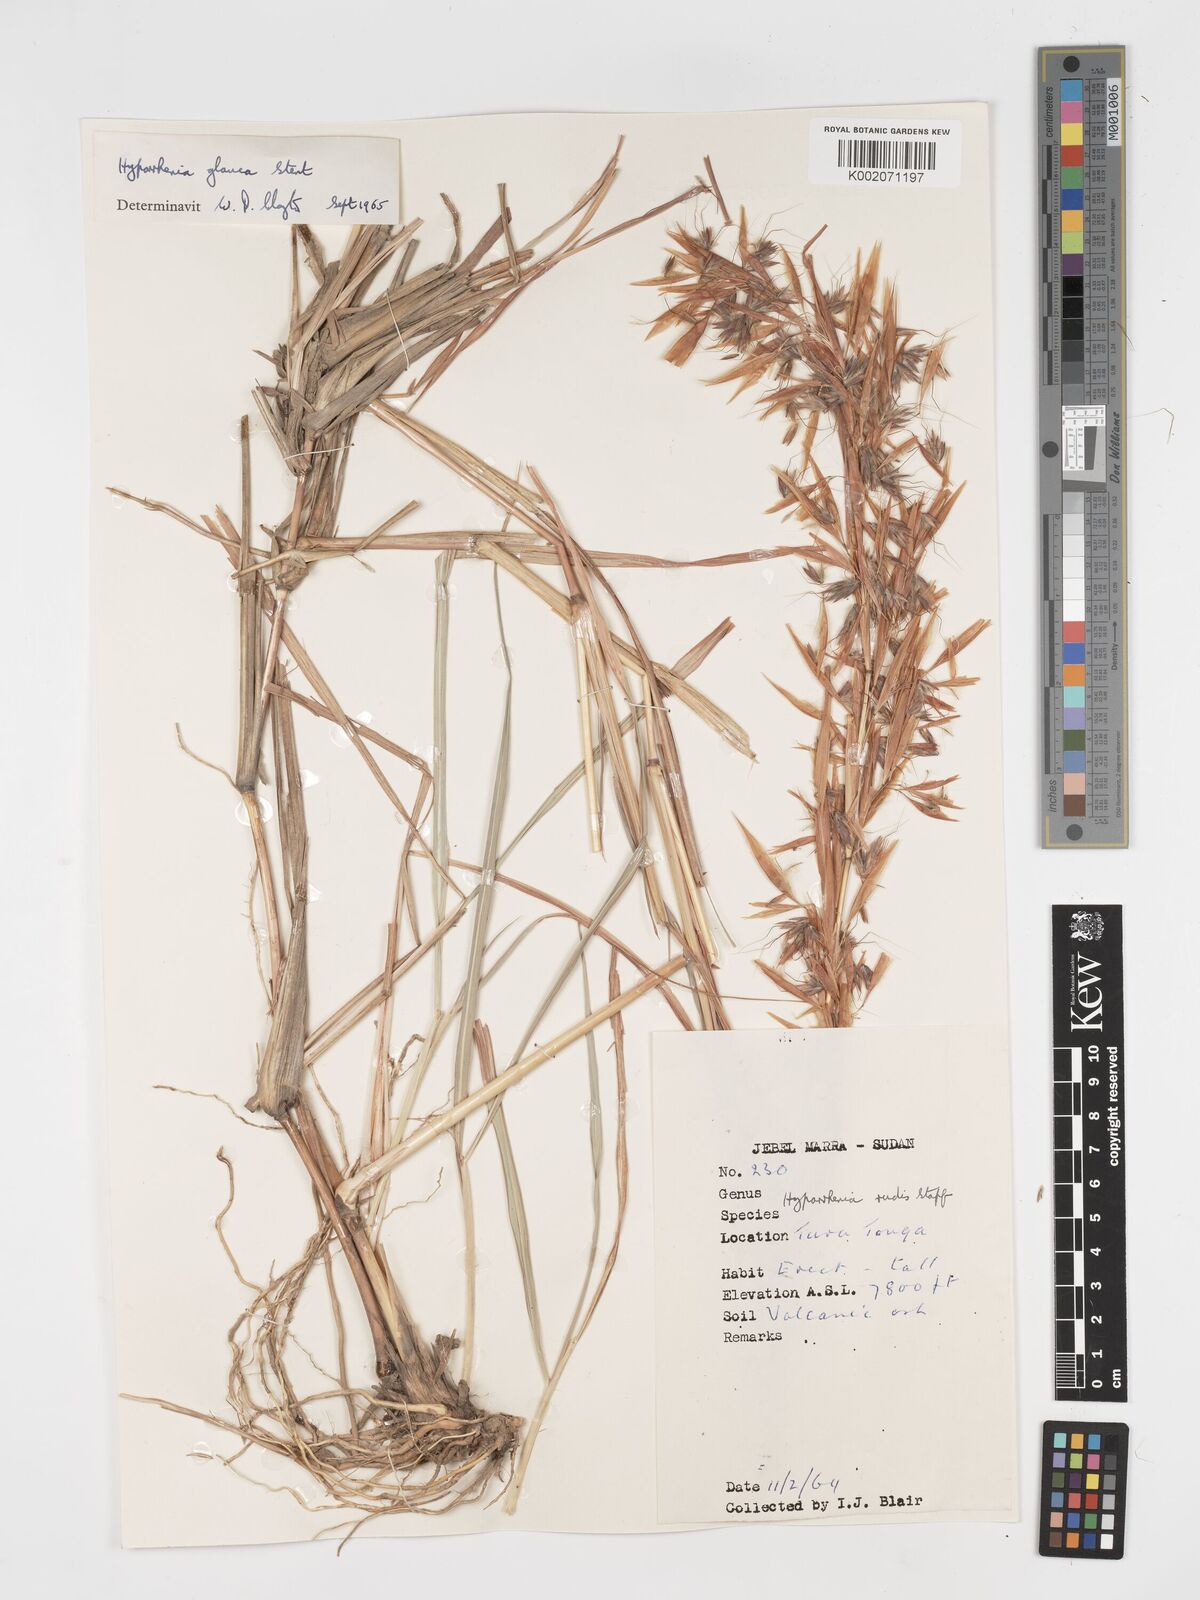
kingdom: Plantae
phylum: Tracheophyta
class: Liliopsida
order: Poales
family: Poaceae
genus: Hyparrhenia
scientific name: Hyparrhenia tamba
